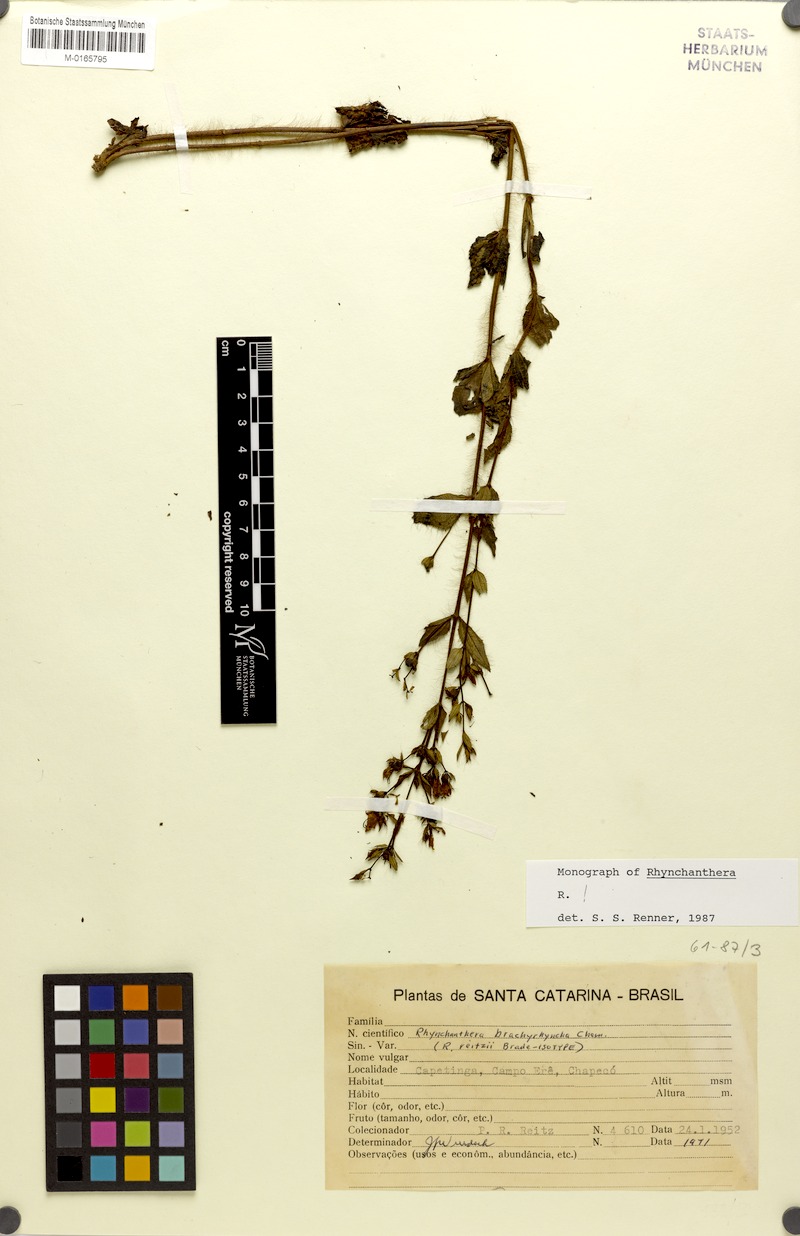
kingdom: Plantae
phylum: Tracheophyta
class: Magnoliopsida
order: Myrtales
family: Melastomataceae
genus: Rhynchanthera
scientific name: Rhynchanthera brachyrhyncha
